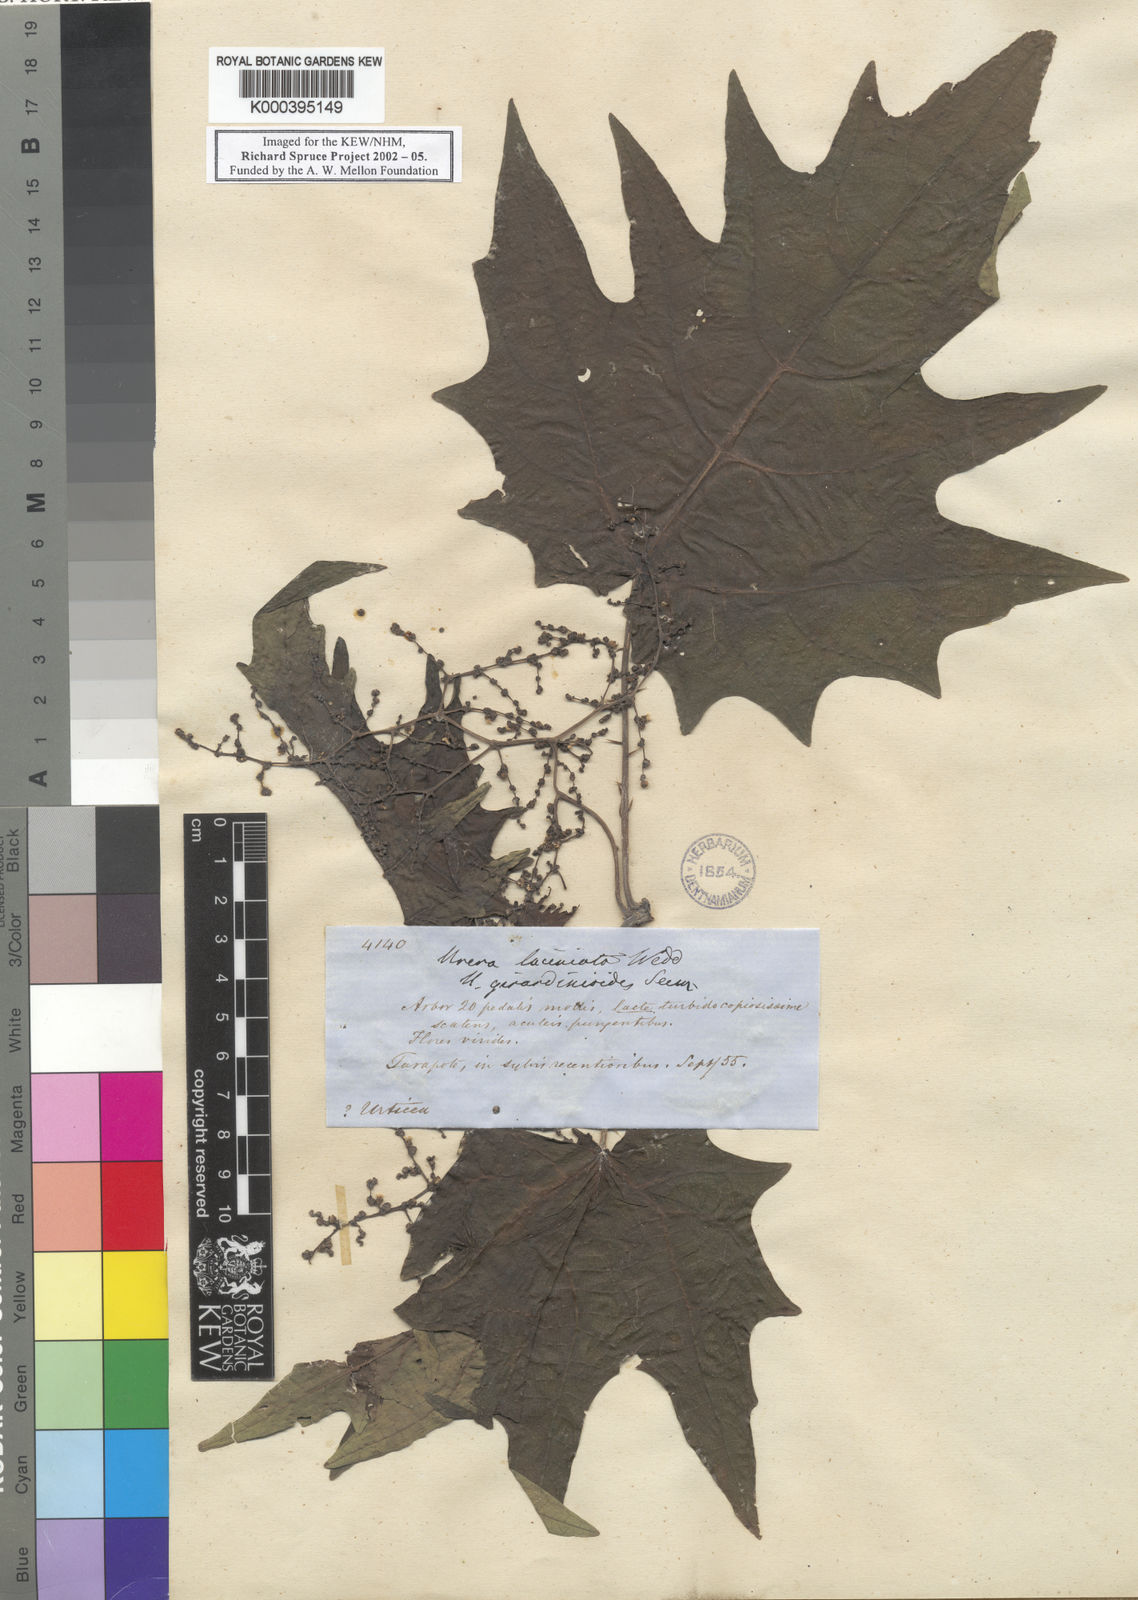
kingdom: Plantae
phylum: Tracheophyta
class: Magnoliopsida
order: Rosales
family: Urticaceae
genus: Urera
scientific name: Urera laciniata
